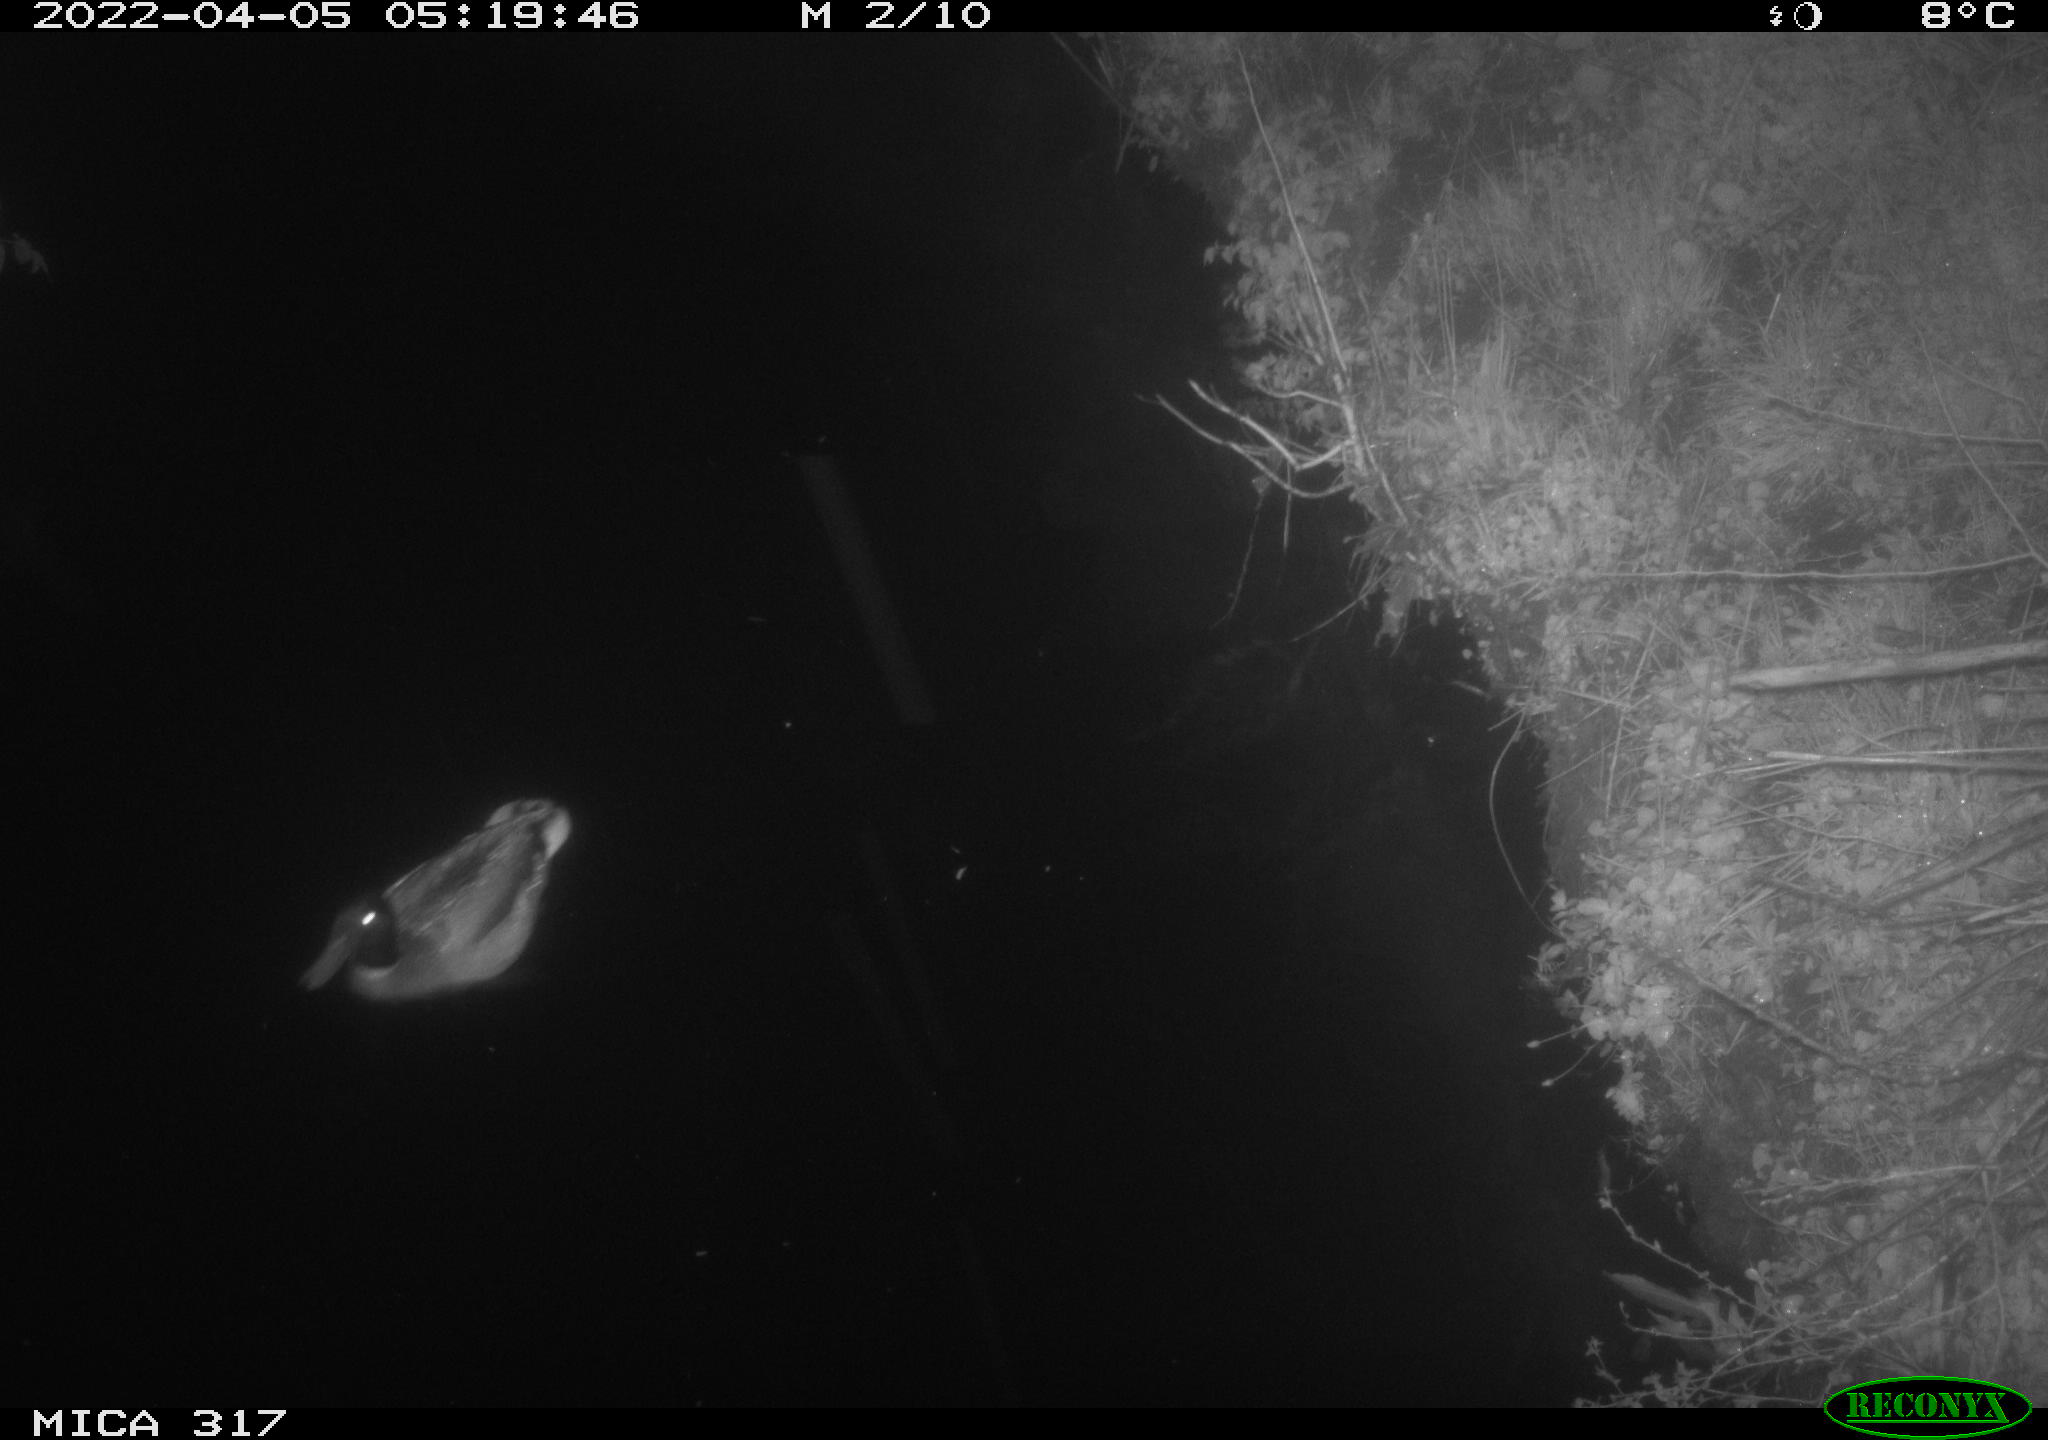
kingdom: Animalia
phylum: Chordata
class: Aves
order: Anseriformes
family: Anatidae
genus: Anas
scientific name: Anas platyrhynchos
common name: Mallard
